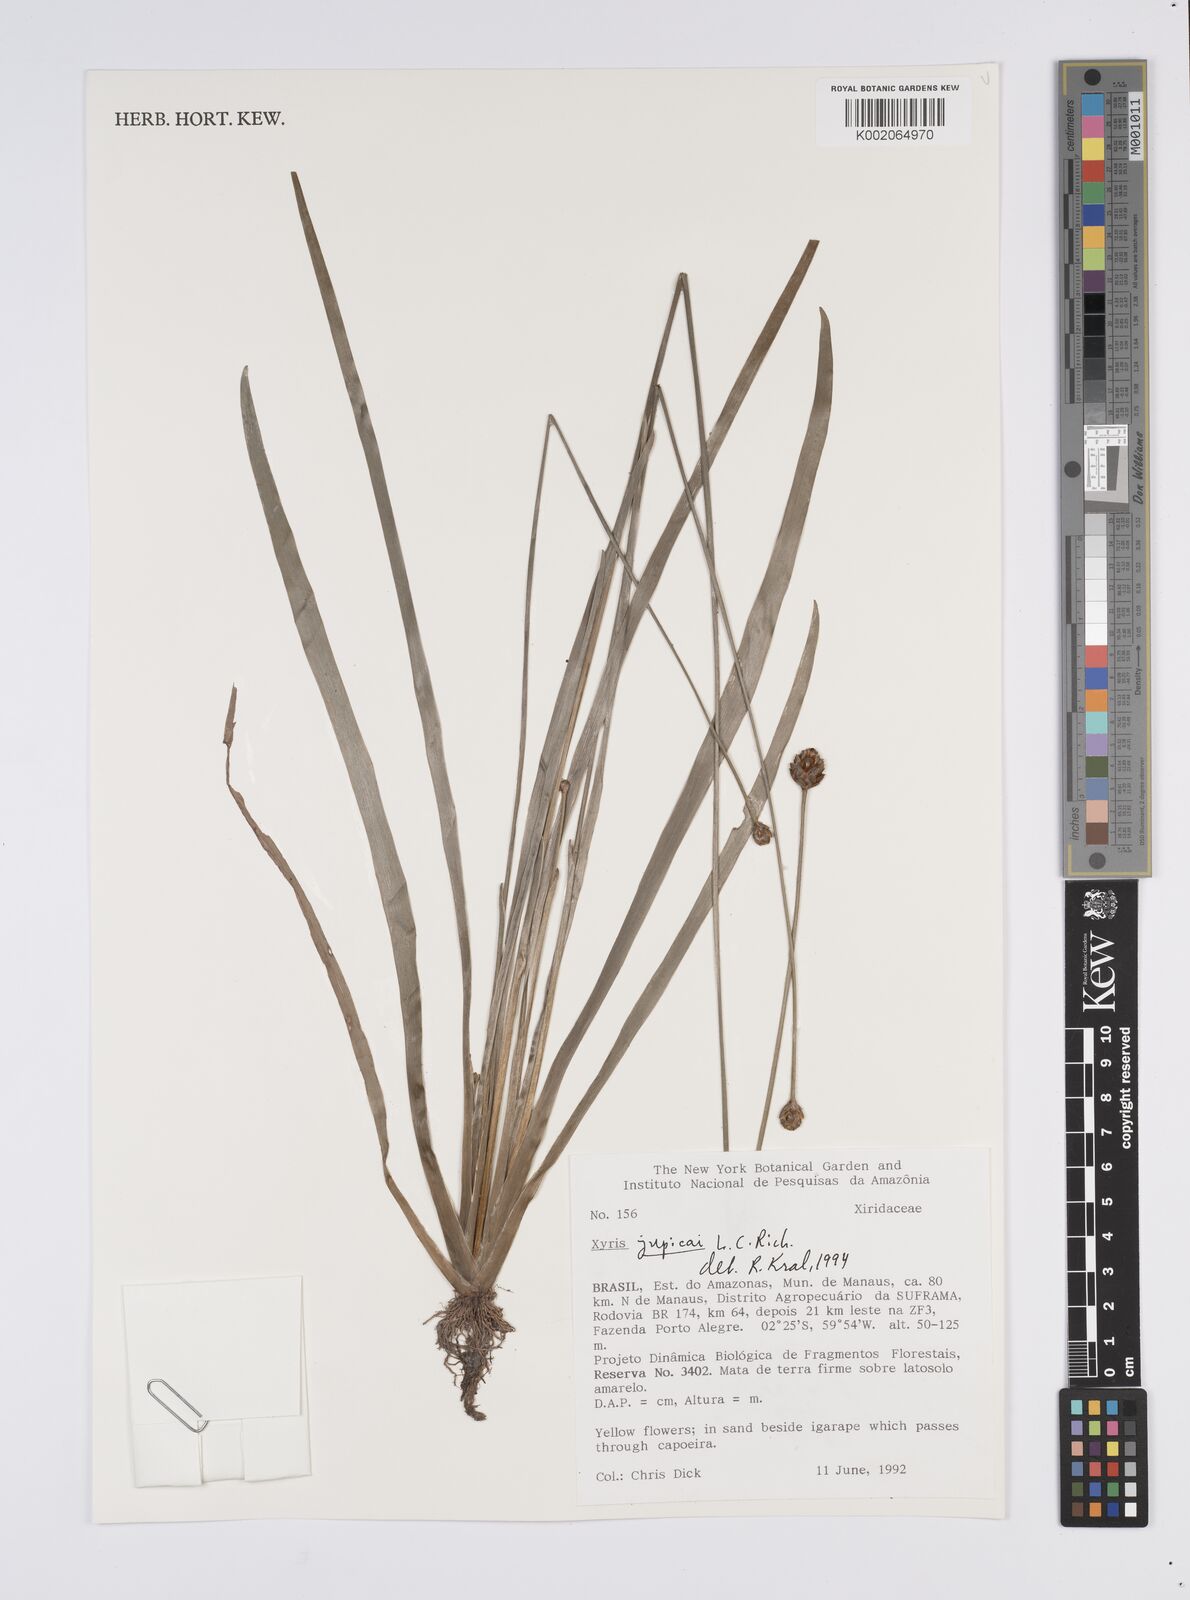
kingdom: Plantae
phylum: Tracheophyta
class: Liliopsida
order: Poales
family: Xyridaceae
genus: Xyris
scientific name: Xyris jupicai
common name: Richard's yelloweyed grass
